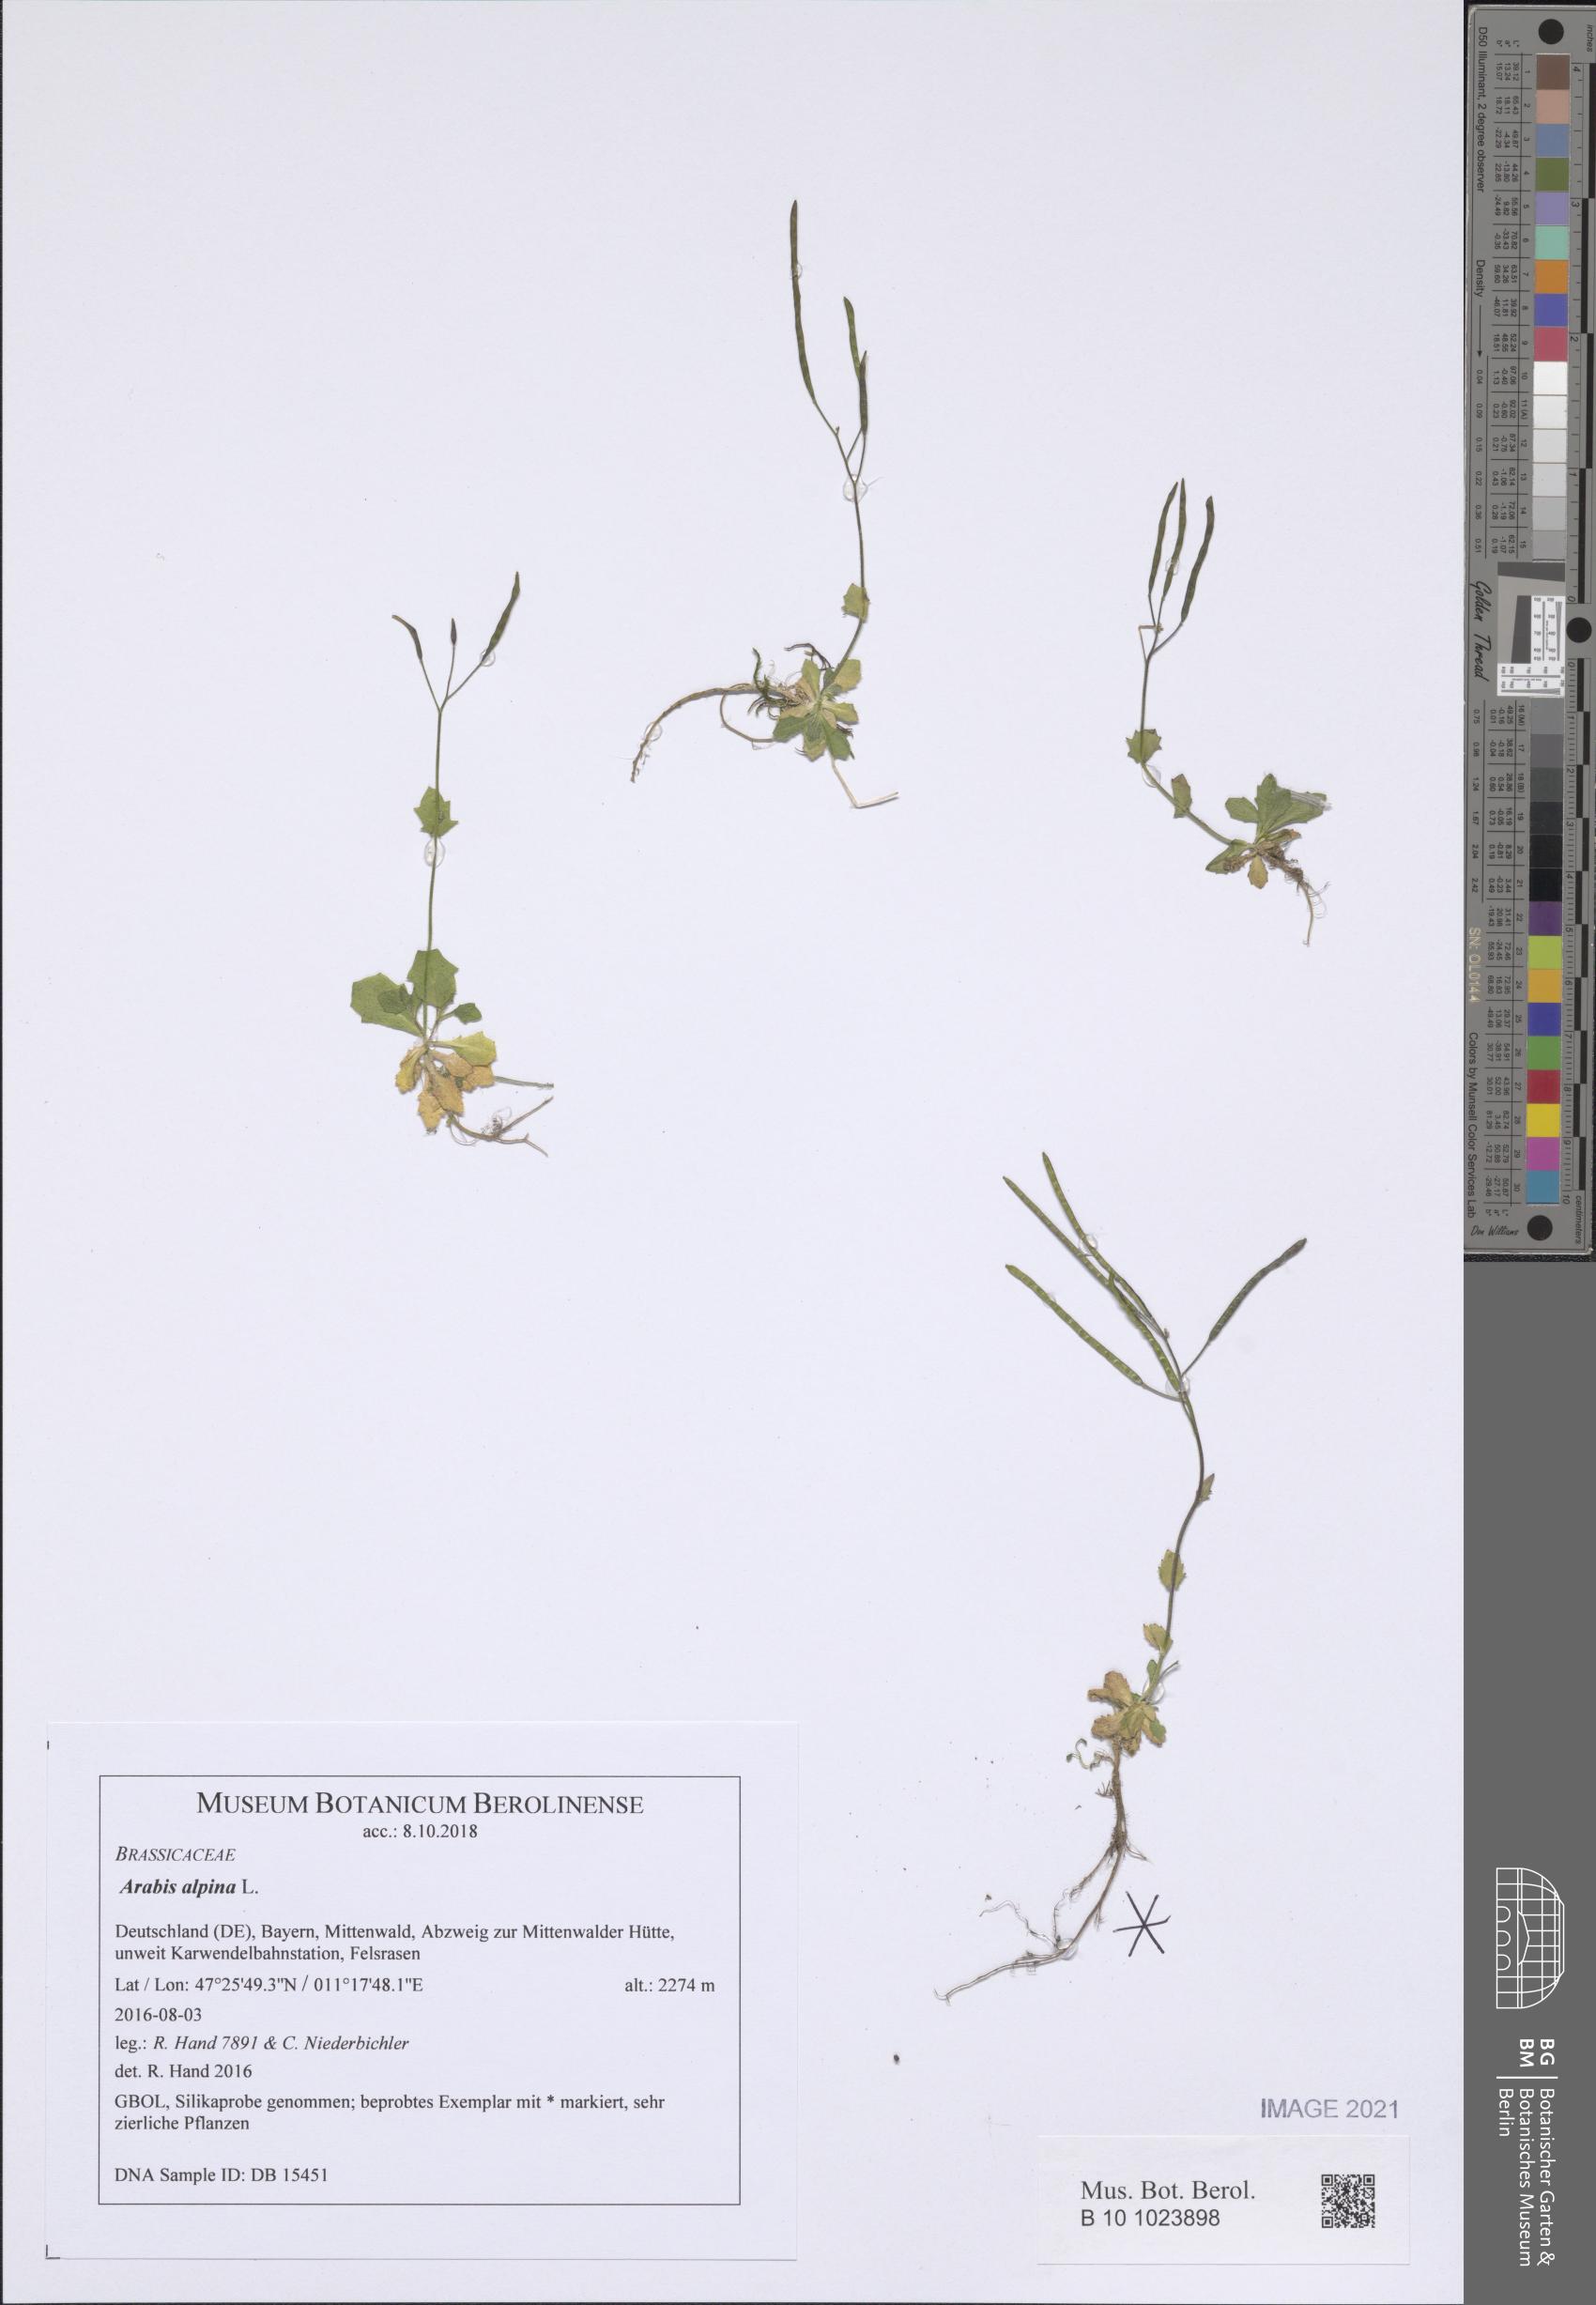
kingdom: Plantae
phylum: Tracheophyta
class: Magnoliopsida
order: Brassicales
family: Brassicaceae
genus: Arabis
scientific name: Arabis alpina
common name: Alpine rock-cress
